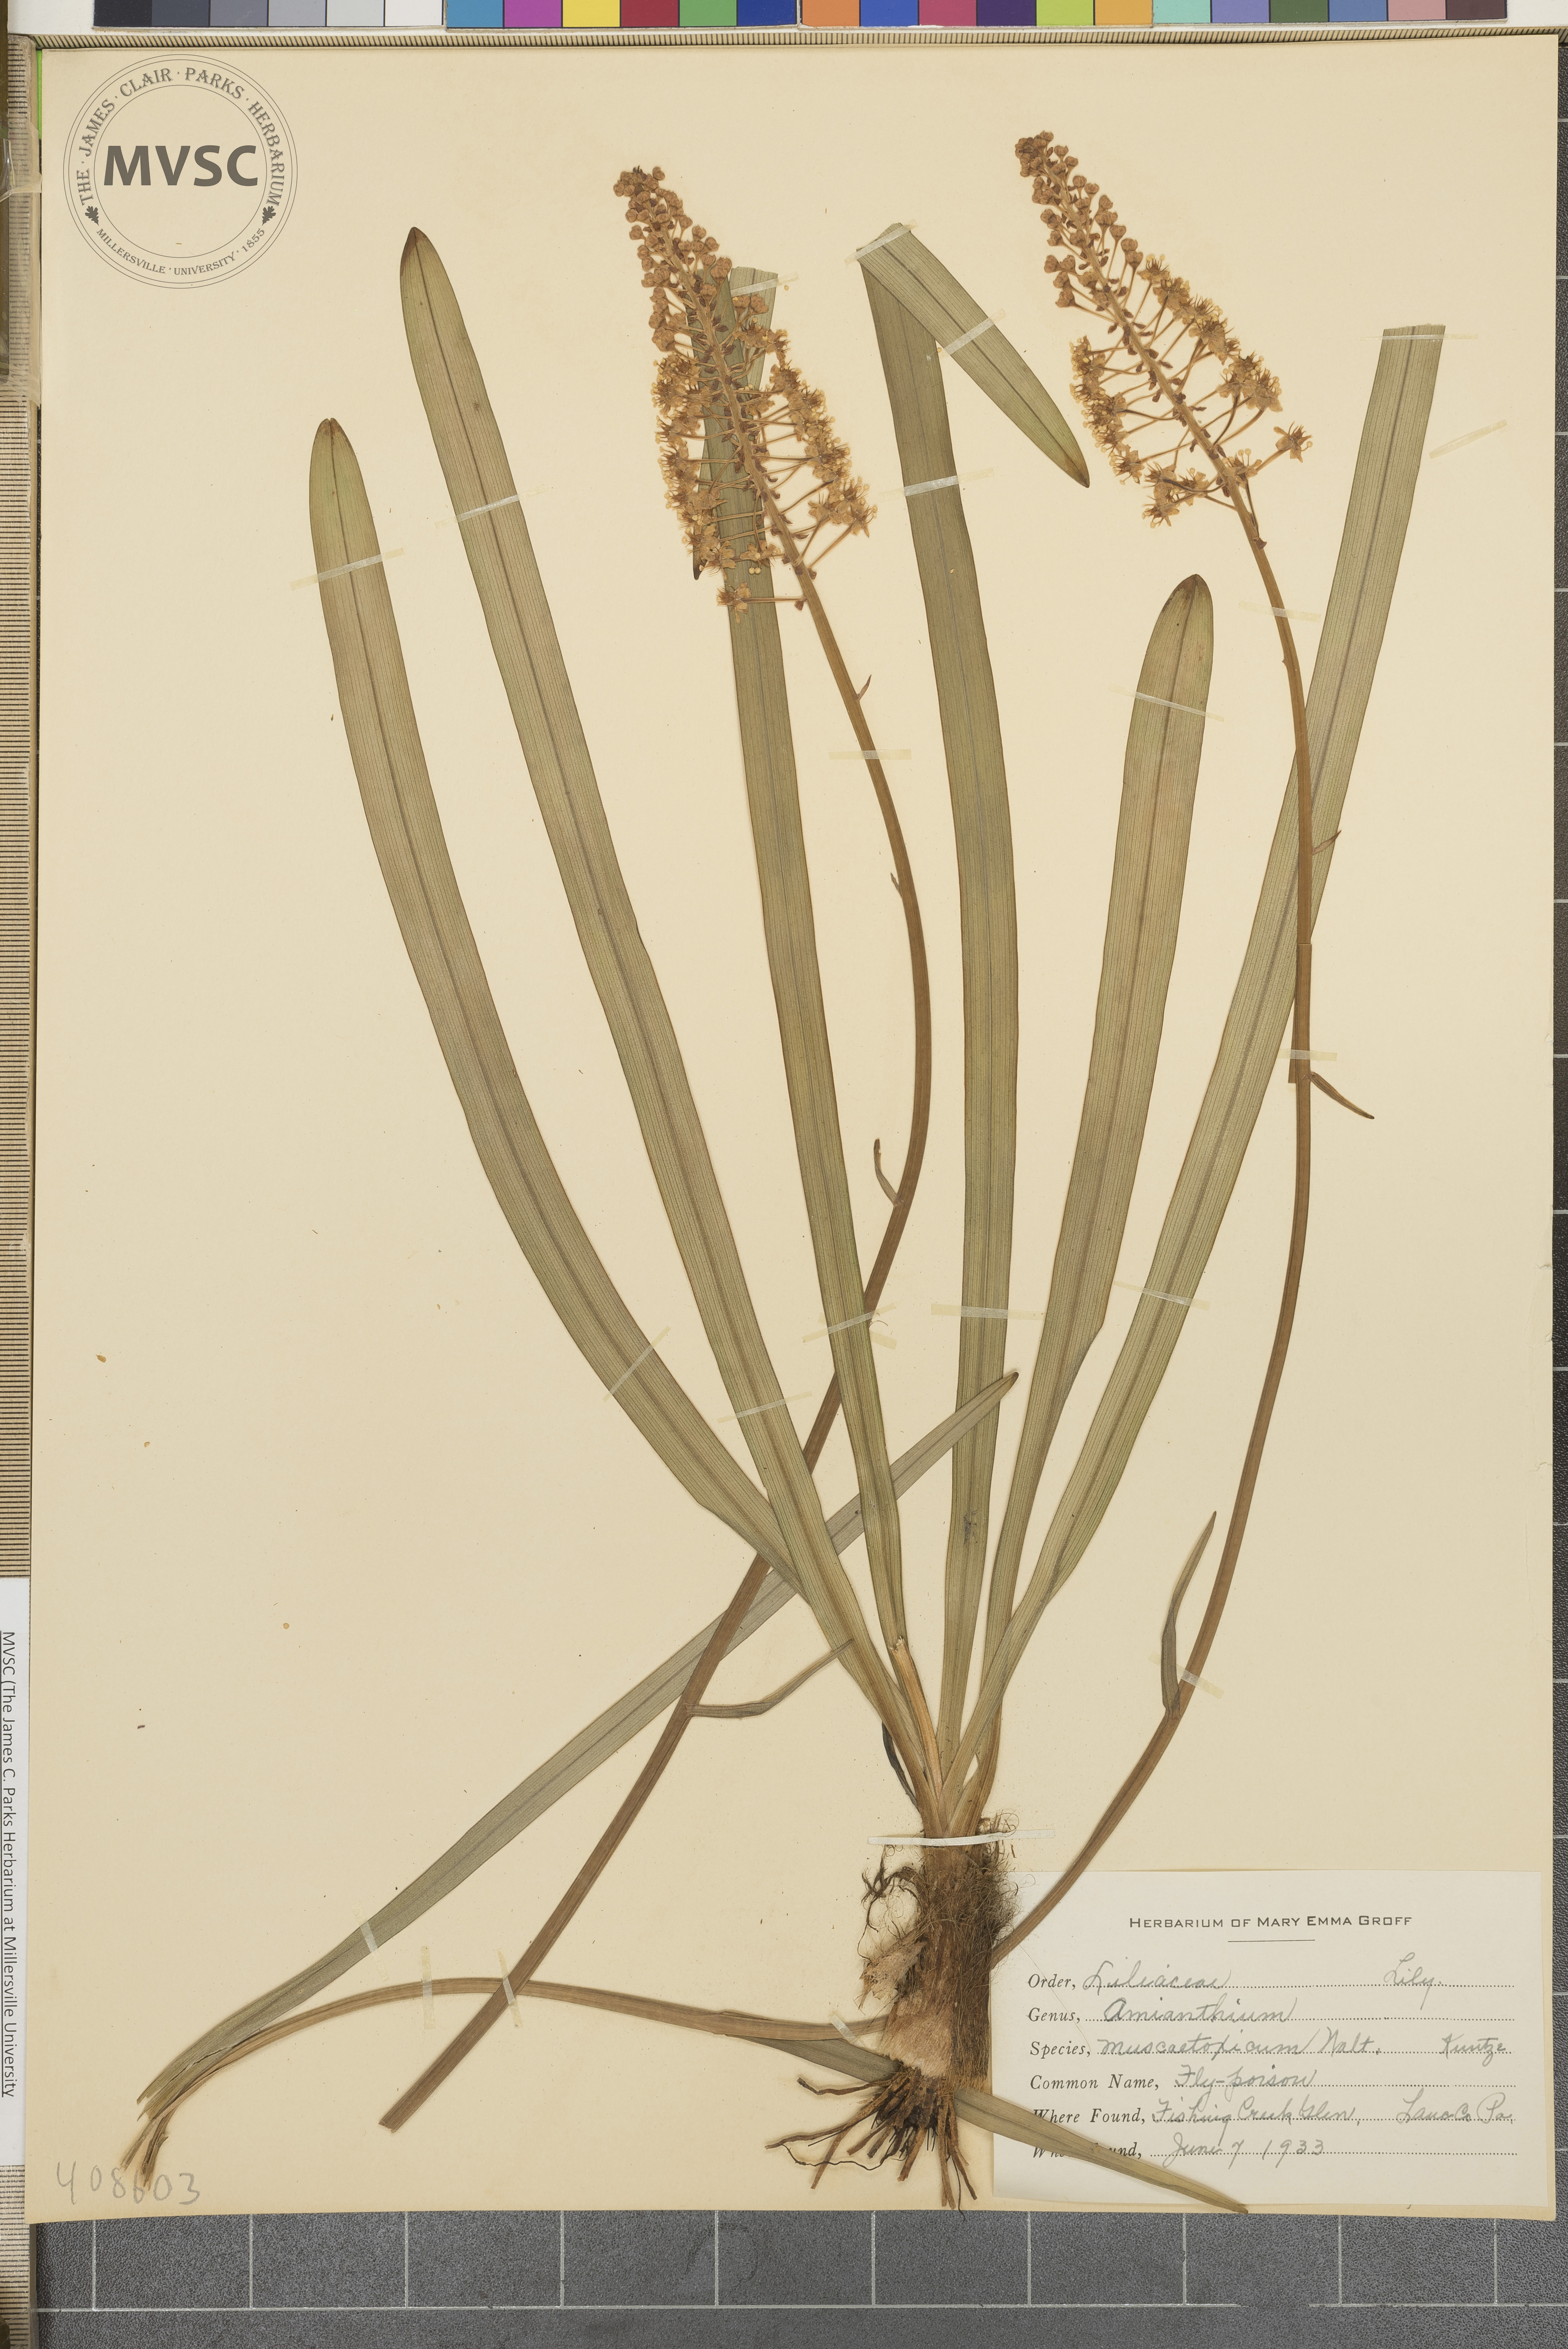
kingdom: Plantae
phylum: Tracheophyta
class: Liliopsida
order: Liliales
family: Melanthiaceae
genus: Amianthium
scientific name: Amianthium muscitoxicum
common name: Fly-poison
